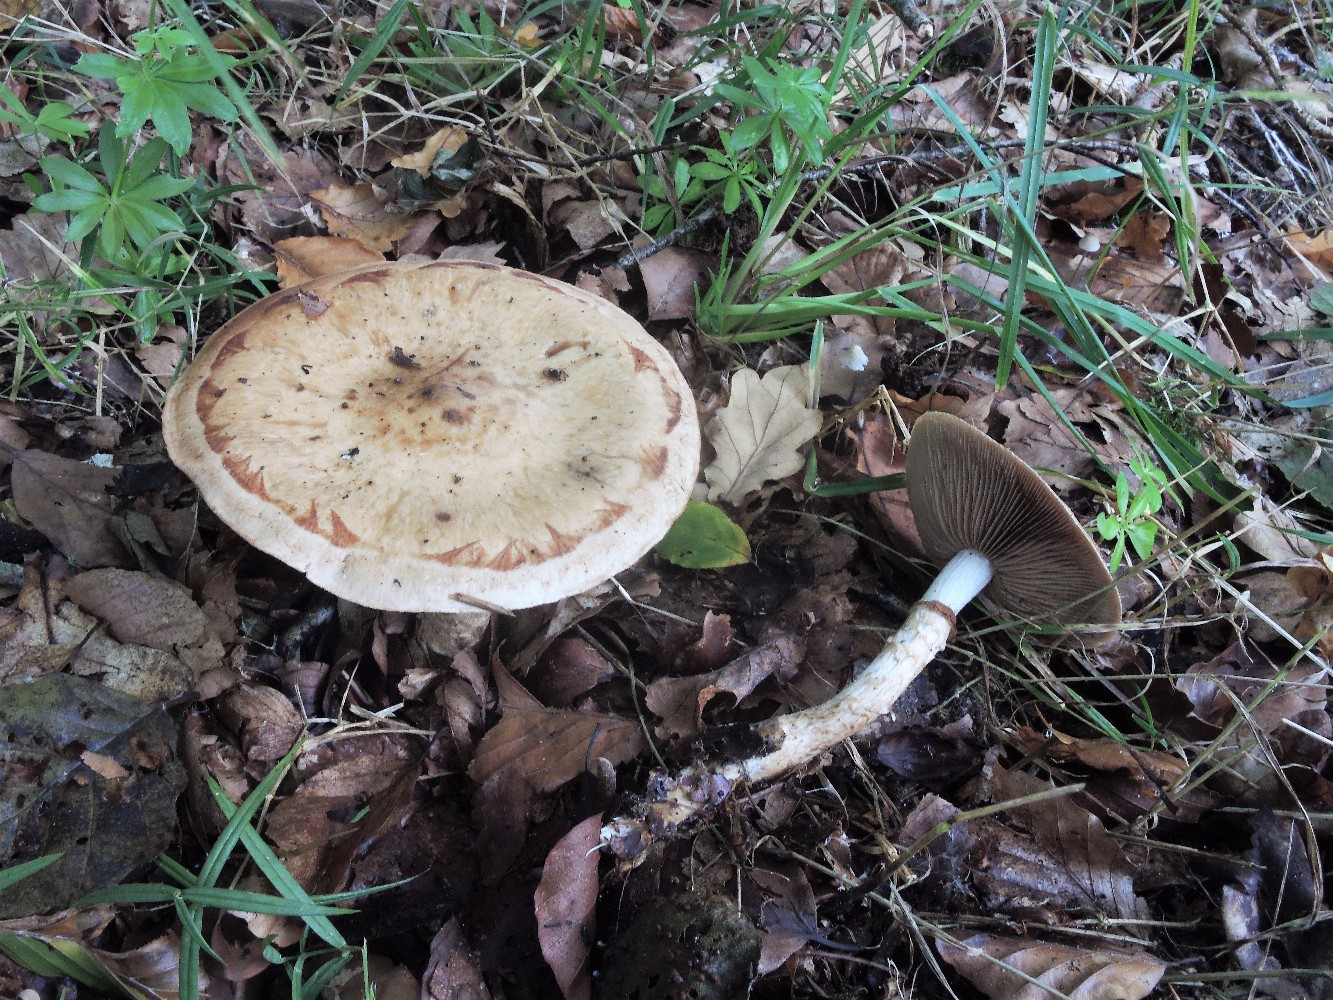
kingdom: Fungi
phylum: Basidiomycota
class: Agaricomycetes
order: Agaricales
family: Hymenogastraceae
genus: Hebeloma
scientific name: Hebeloma radicosum
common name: pælerods-tåreblad
